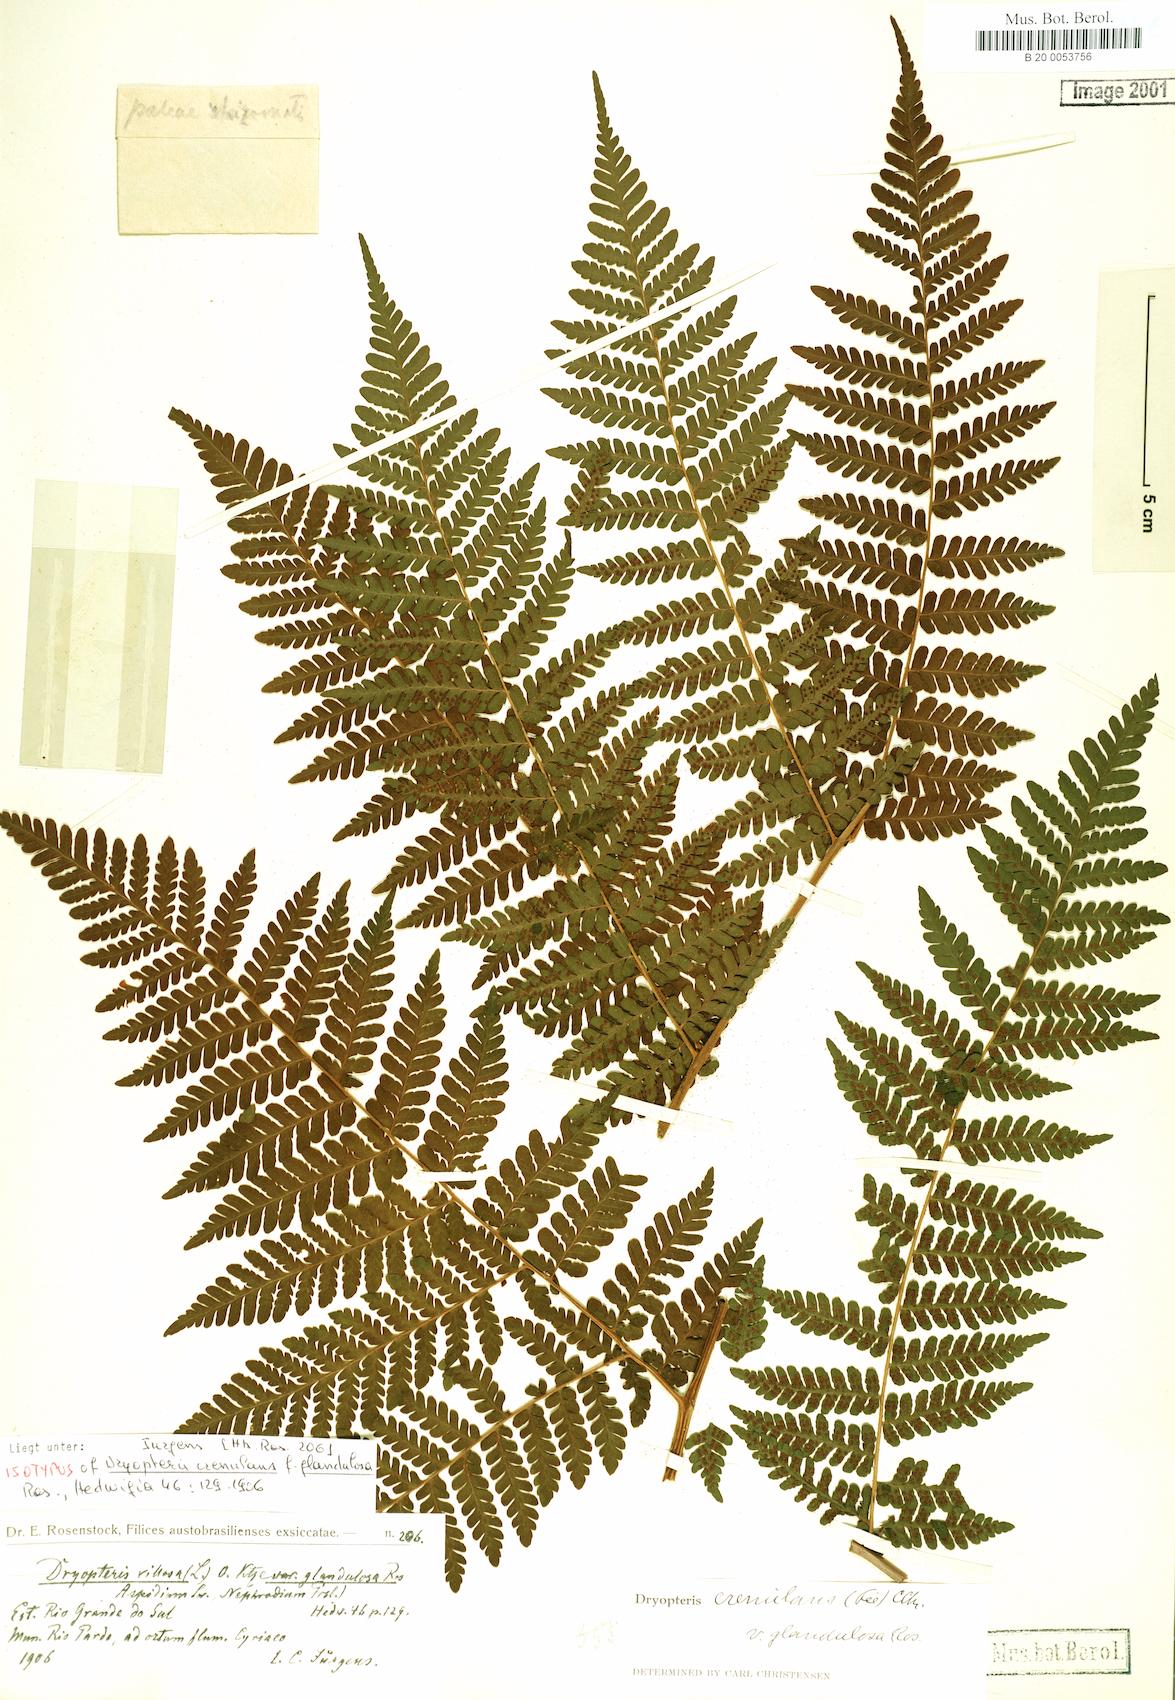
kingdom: Plantae
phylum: Tracheophyta
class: Polypodiopsida
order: Polypodiales
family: Dryopteridaceae
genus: Megalastrum
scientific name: Megalastrum crenulans
